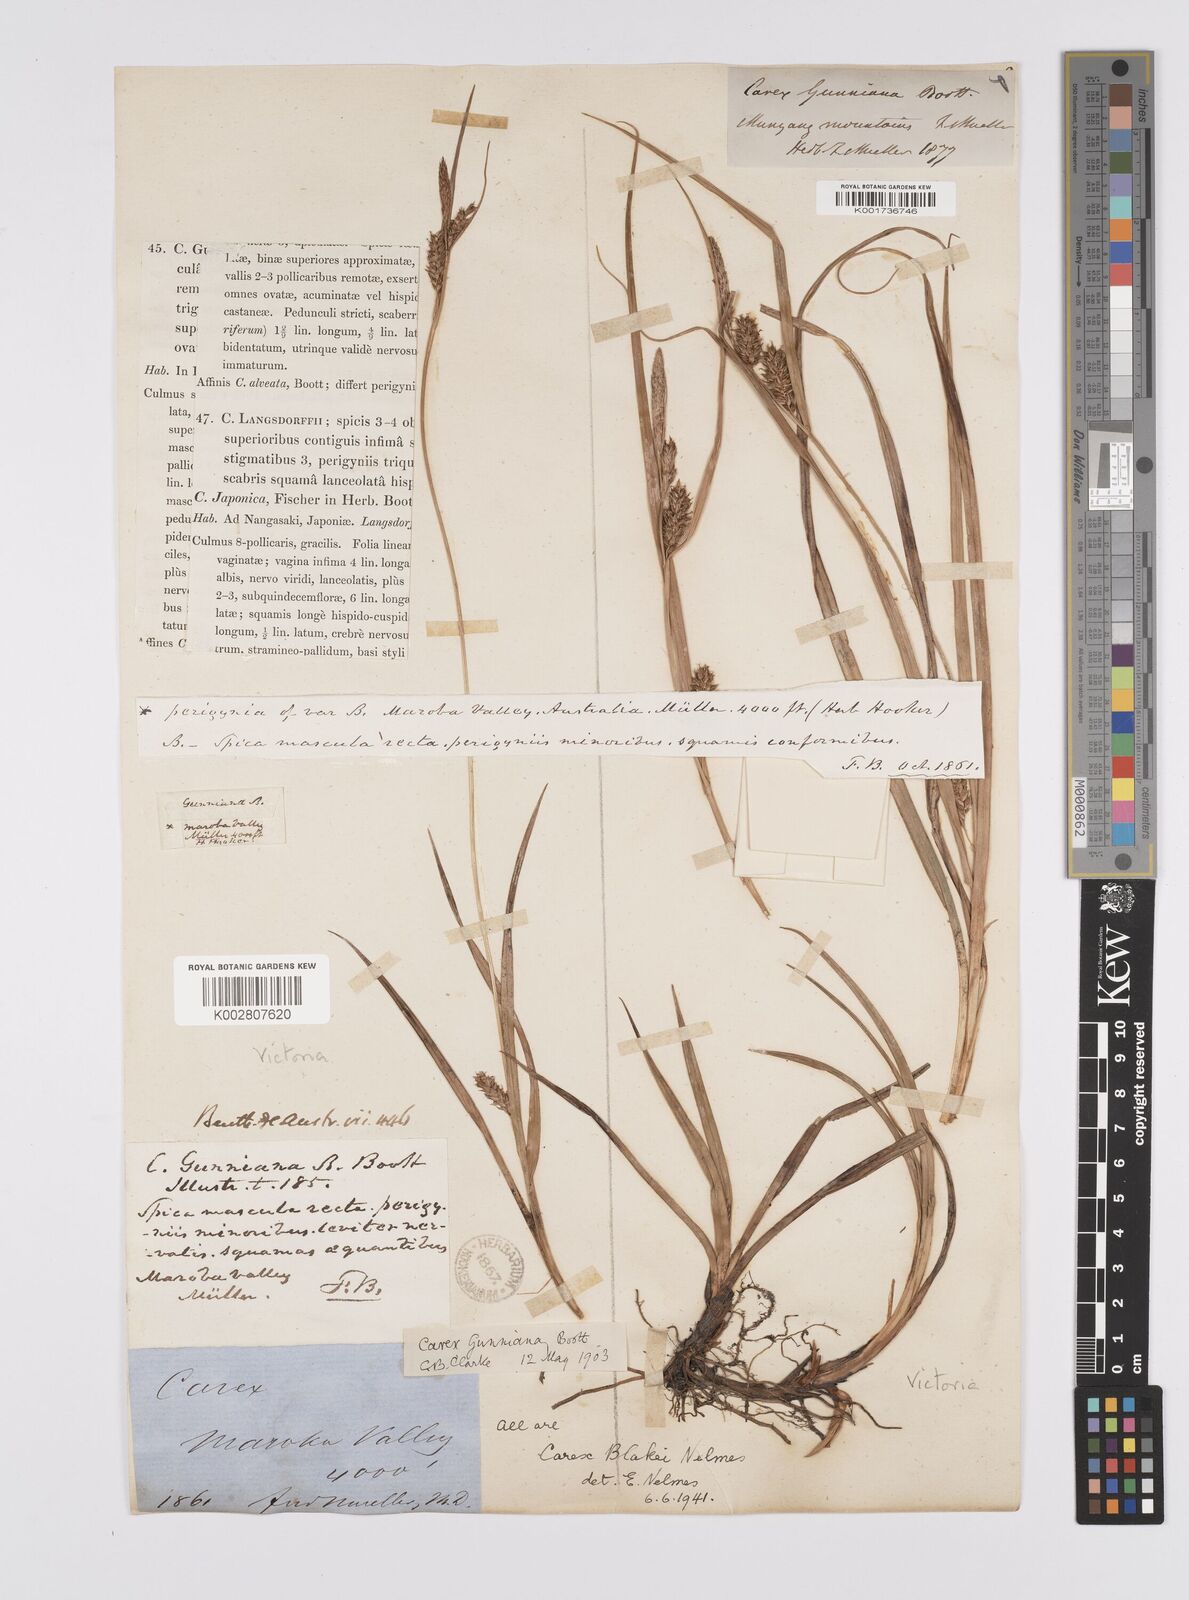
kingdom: Plantae
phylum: Tracheophyta
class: Liliopsida
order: Poales
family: Cyperaceae
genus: Carex
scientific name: Carex blakei
